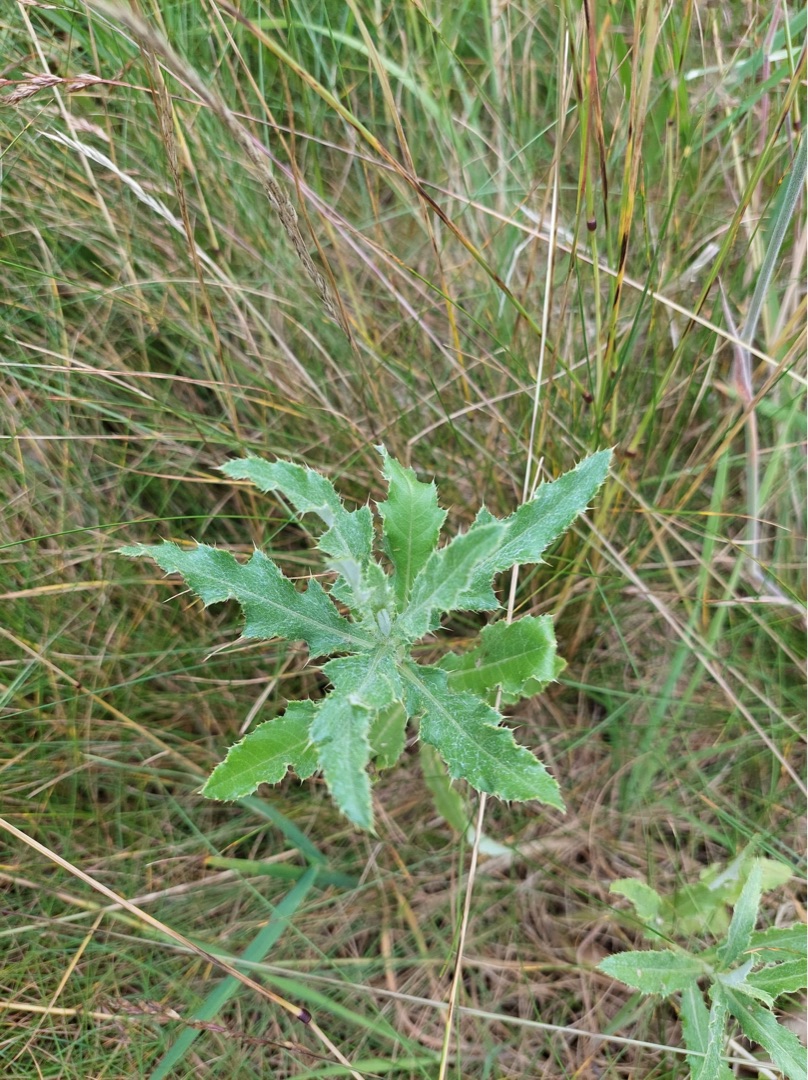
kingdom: Plantae
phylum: Tracheophyta
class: Magnoliopsida
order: Asterales
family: Asteraceae
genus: Cirsium
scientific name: Cirsium arvense
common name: Ager-tidsel
